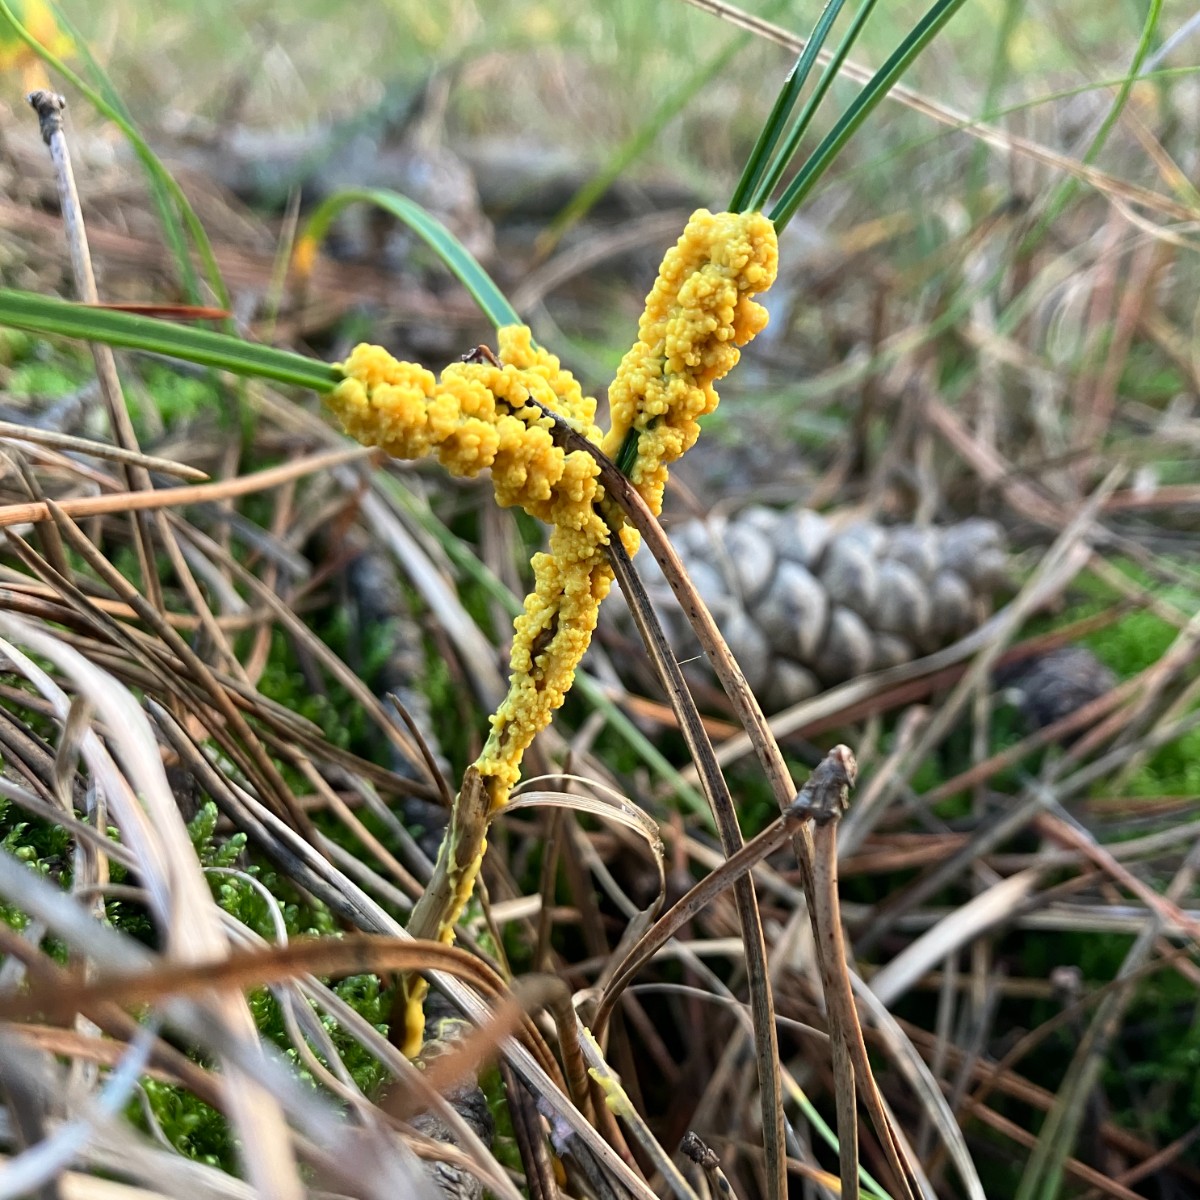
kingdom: Protozoa
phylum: Mycetozoa
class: Myxomycetes
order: Physarales
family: Physaraceae
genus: Leocarpus
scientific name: Leocarpus fragilis
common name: poleret glatfrø
